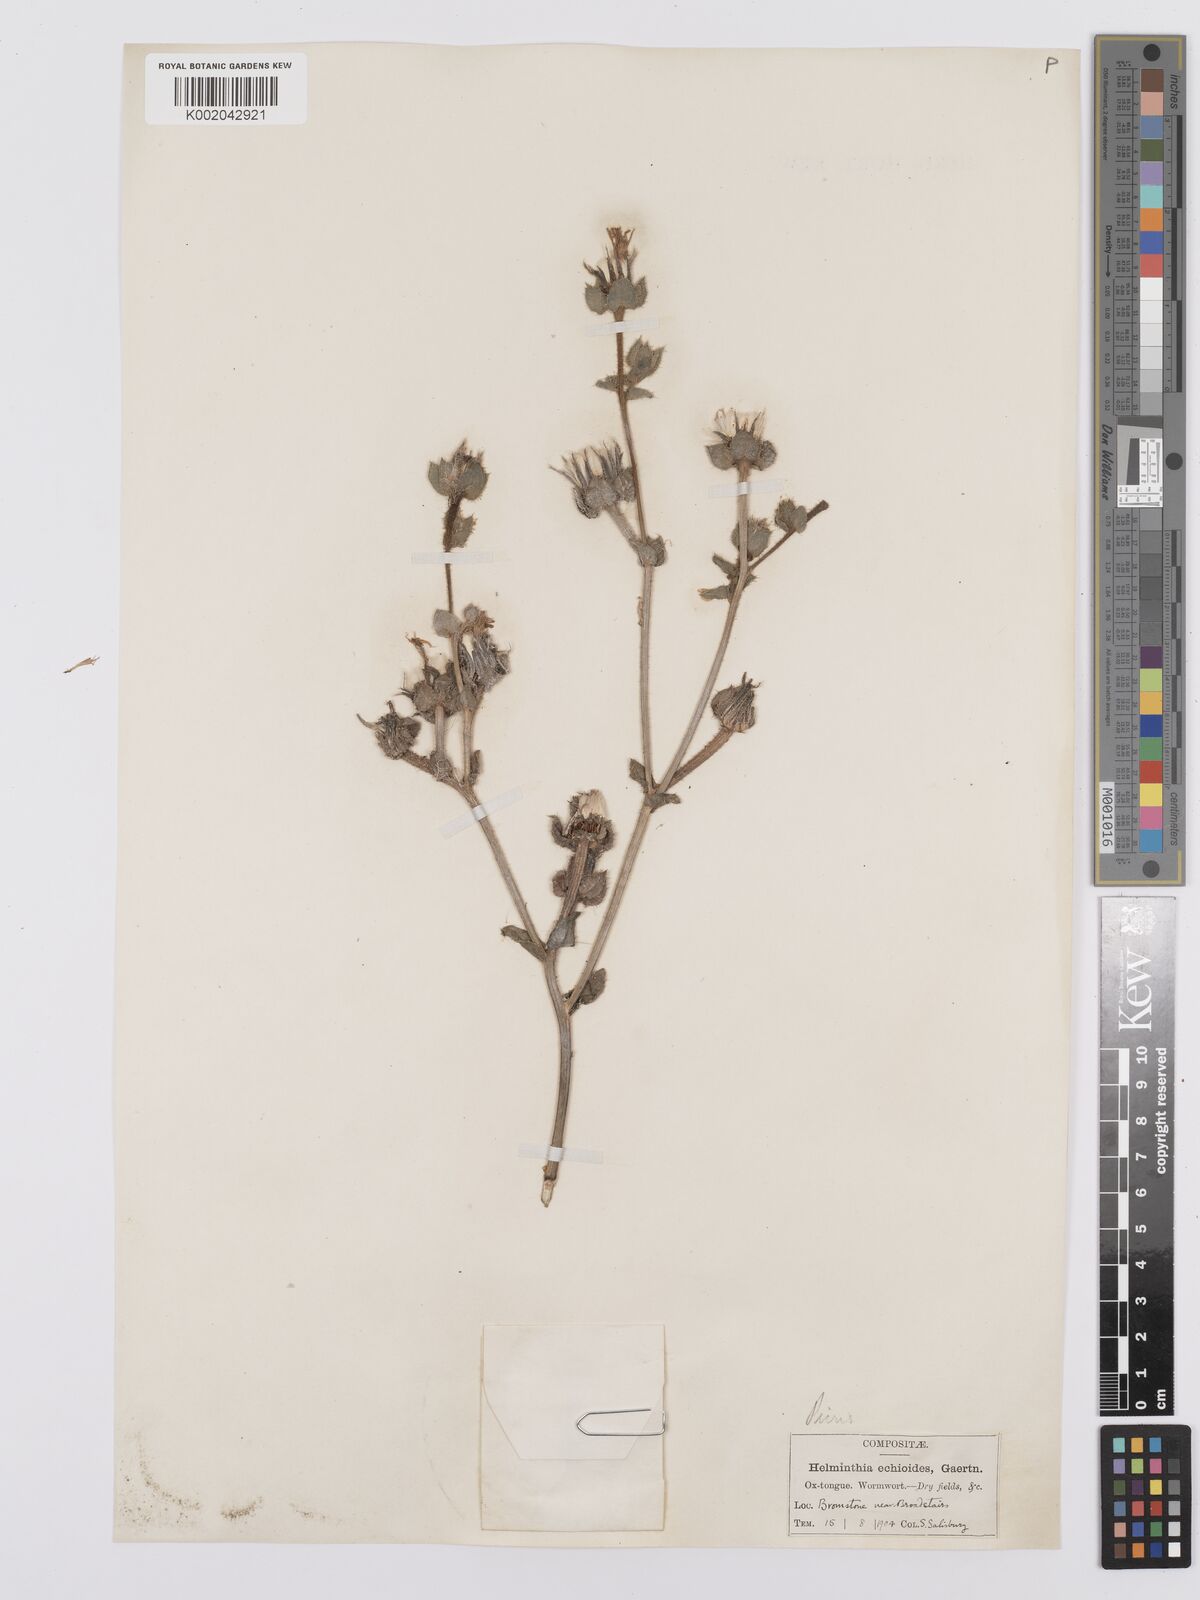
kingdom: Plantae
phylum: Tracheophyta
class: Magnoliopsida
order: Asterales
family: Asteraceae
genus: Helminthotheca
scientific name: Helminthotheca echioides
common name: Ox-tongue
